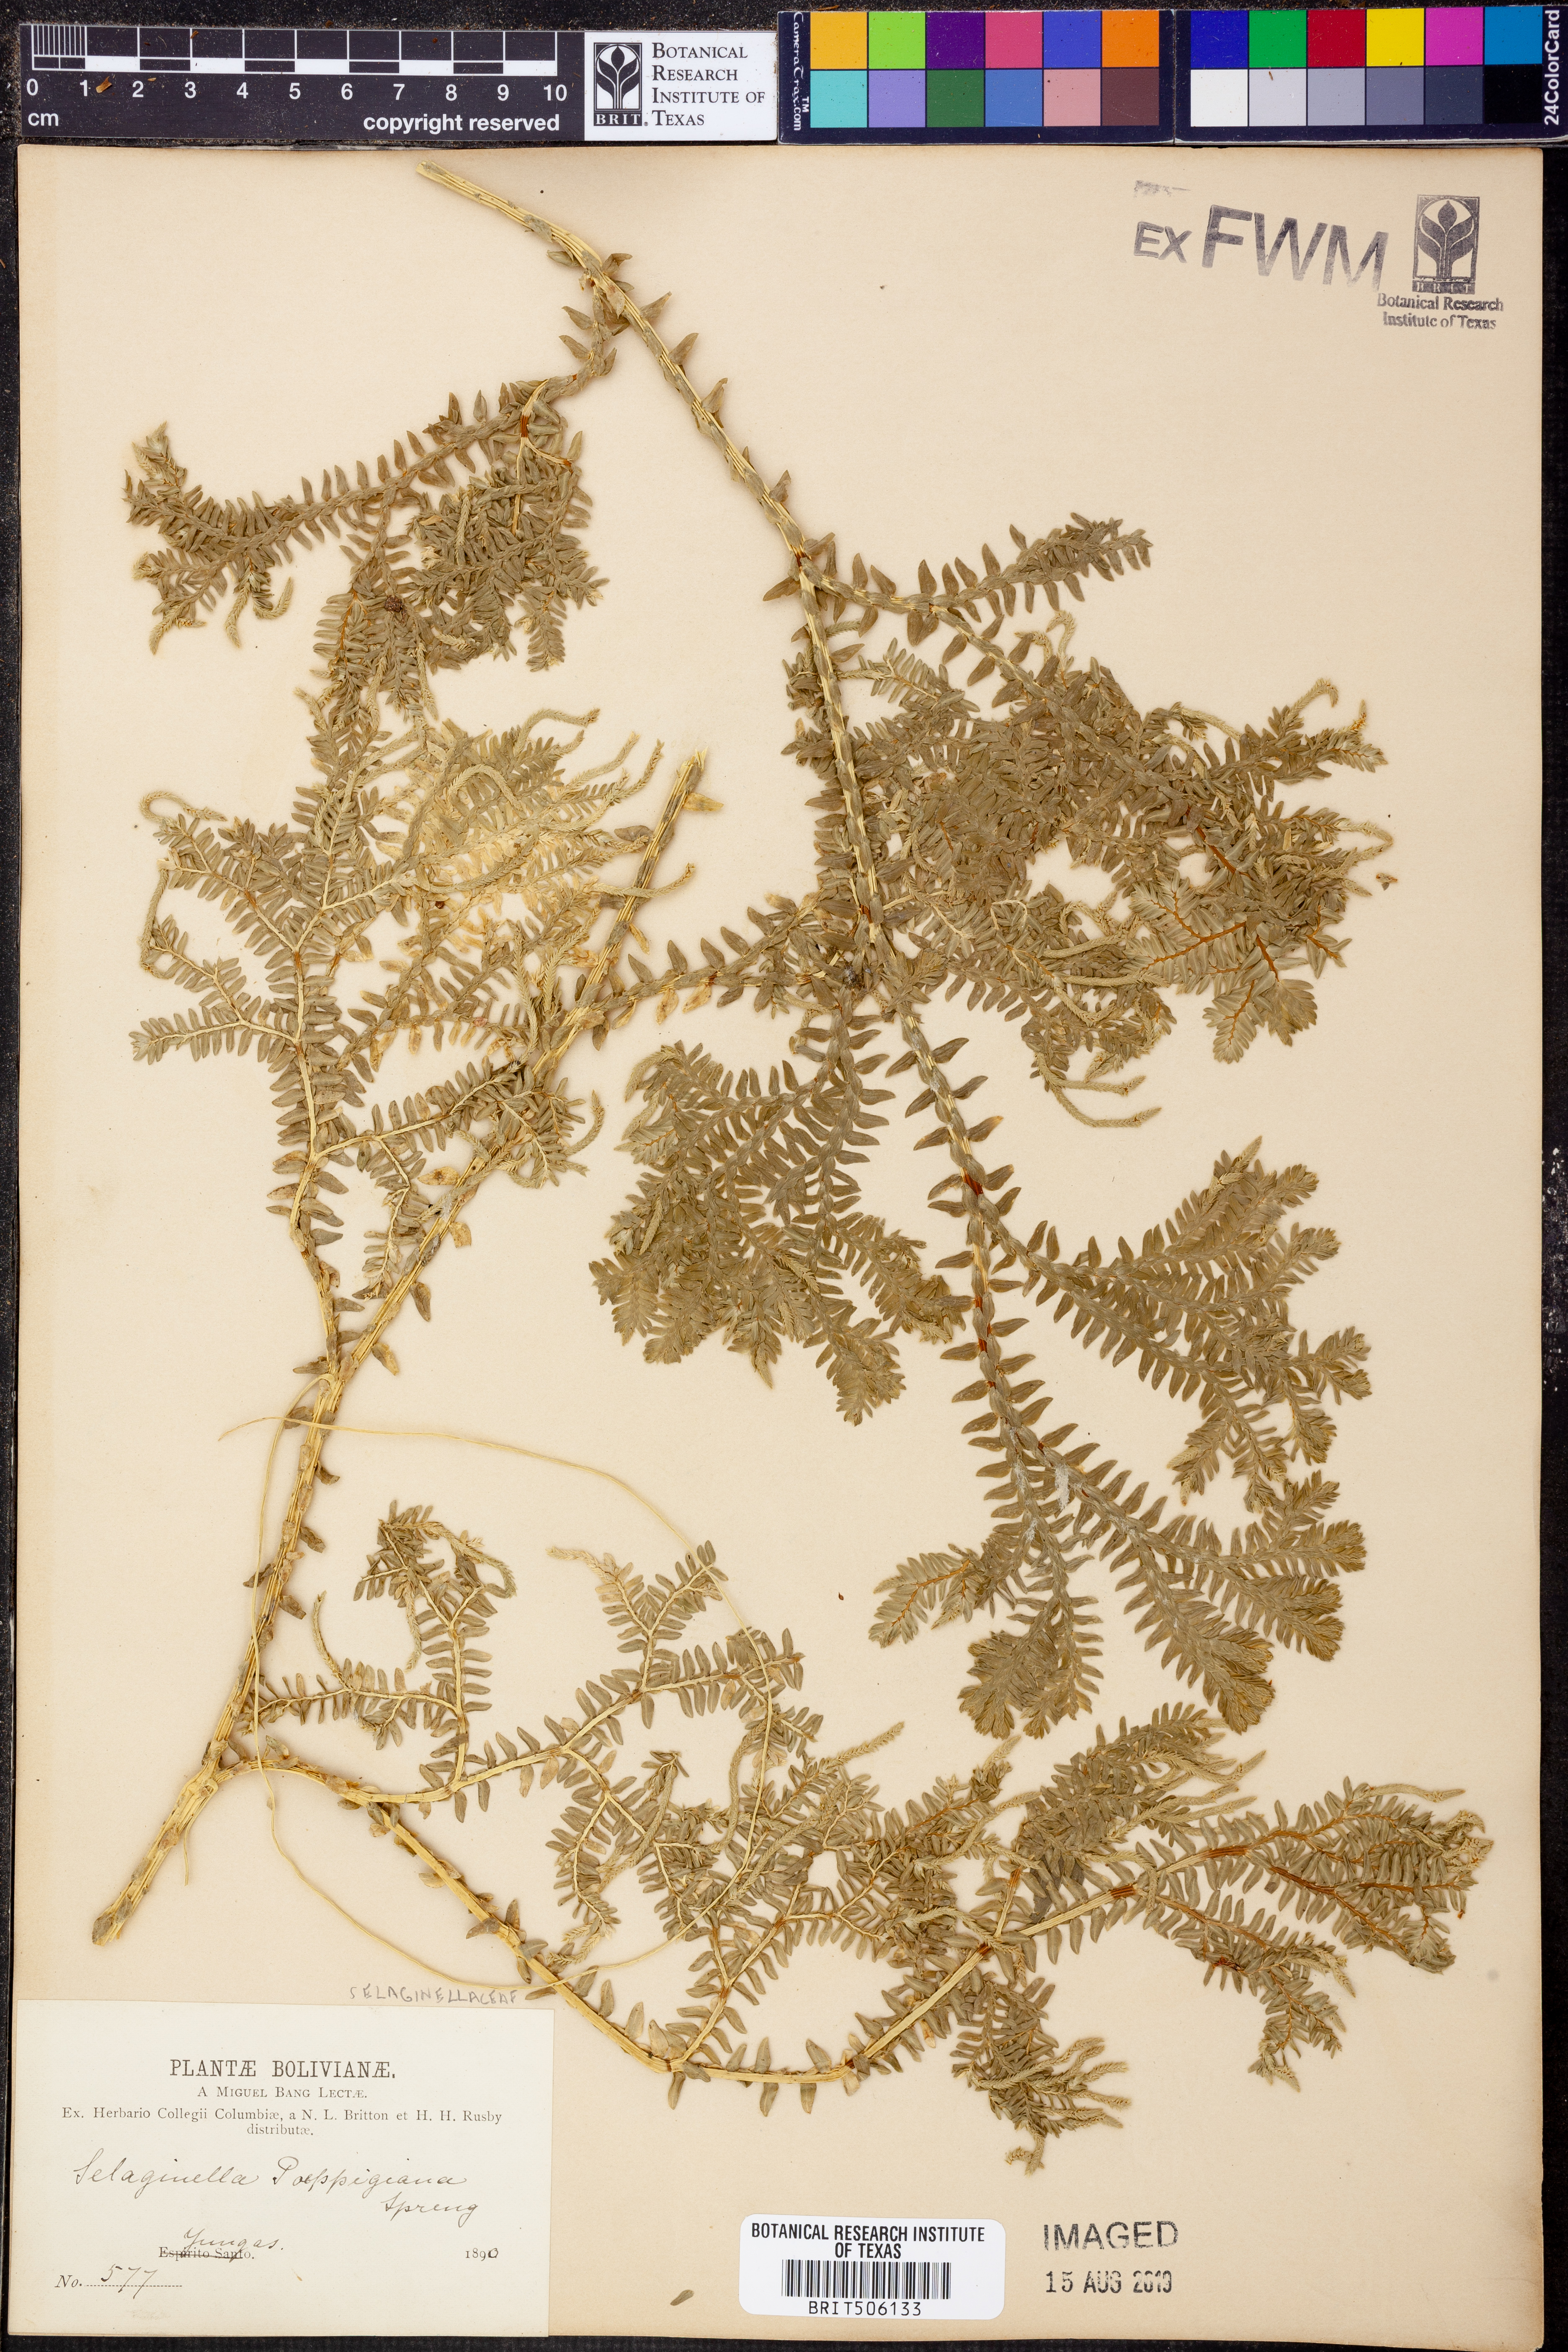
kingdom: Plantae
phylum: Tracheophyta
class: Lycopodiopsida
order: Selaginellales
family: Selaginellaceae
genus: Selaginella
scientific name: Selaginella poeppigiana
